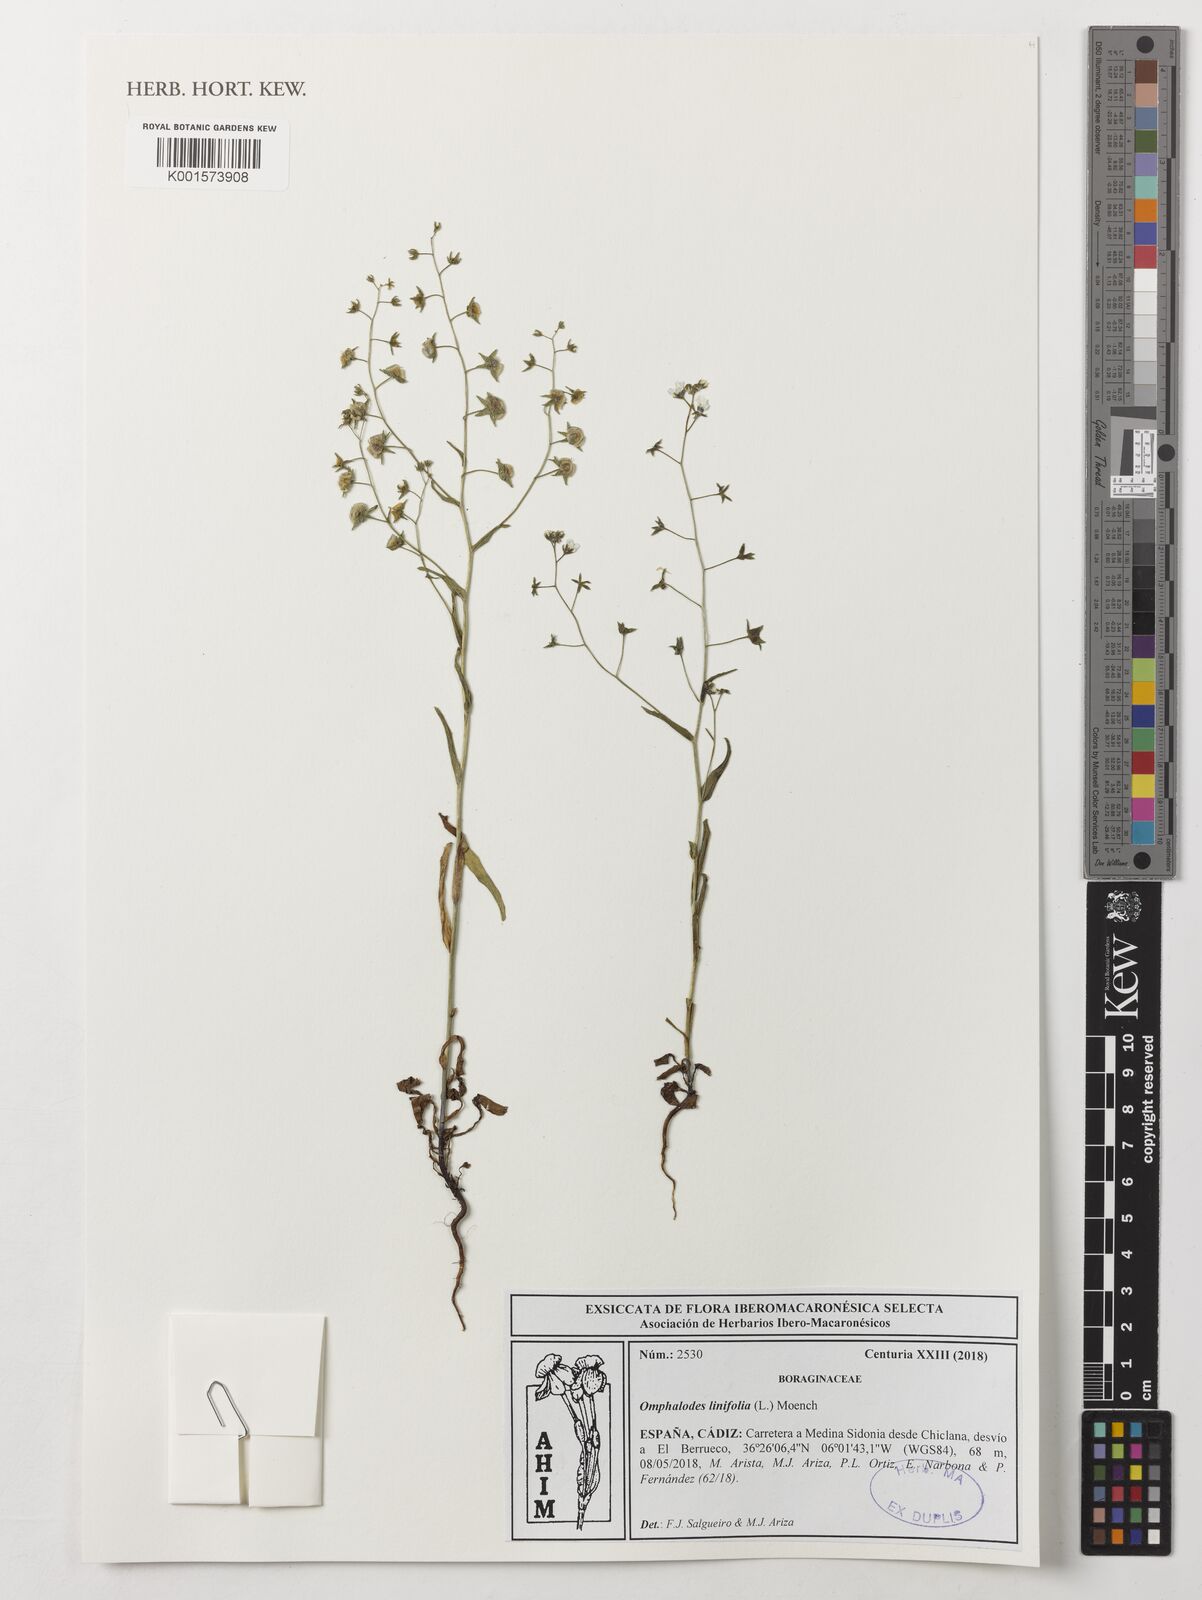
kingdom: Plantae
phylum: Tracheophyta
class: Magnoliopsida
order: Boraginales
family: Boraginaceae
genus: Iberodes
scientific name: Iberodes linifolia
